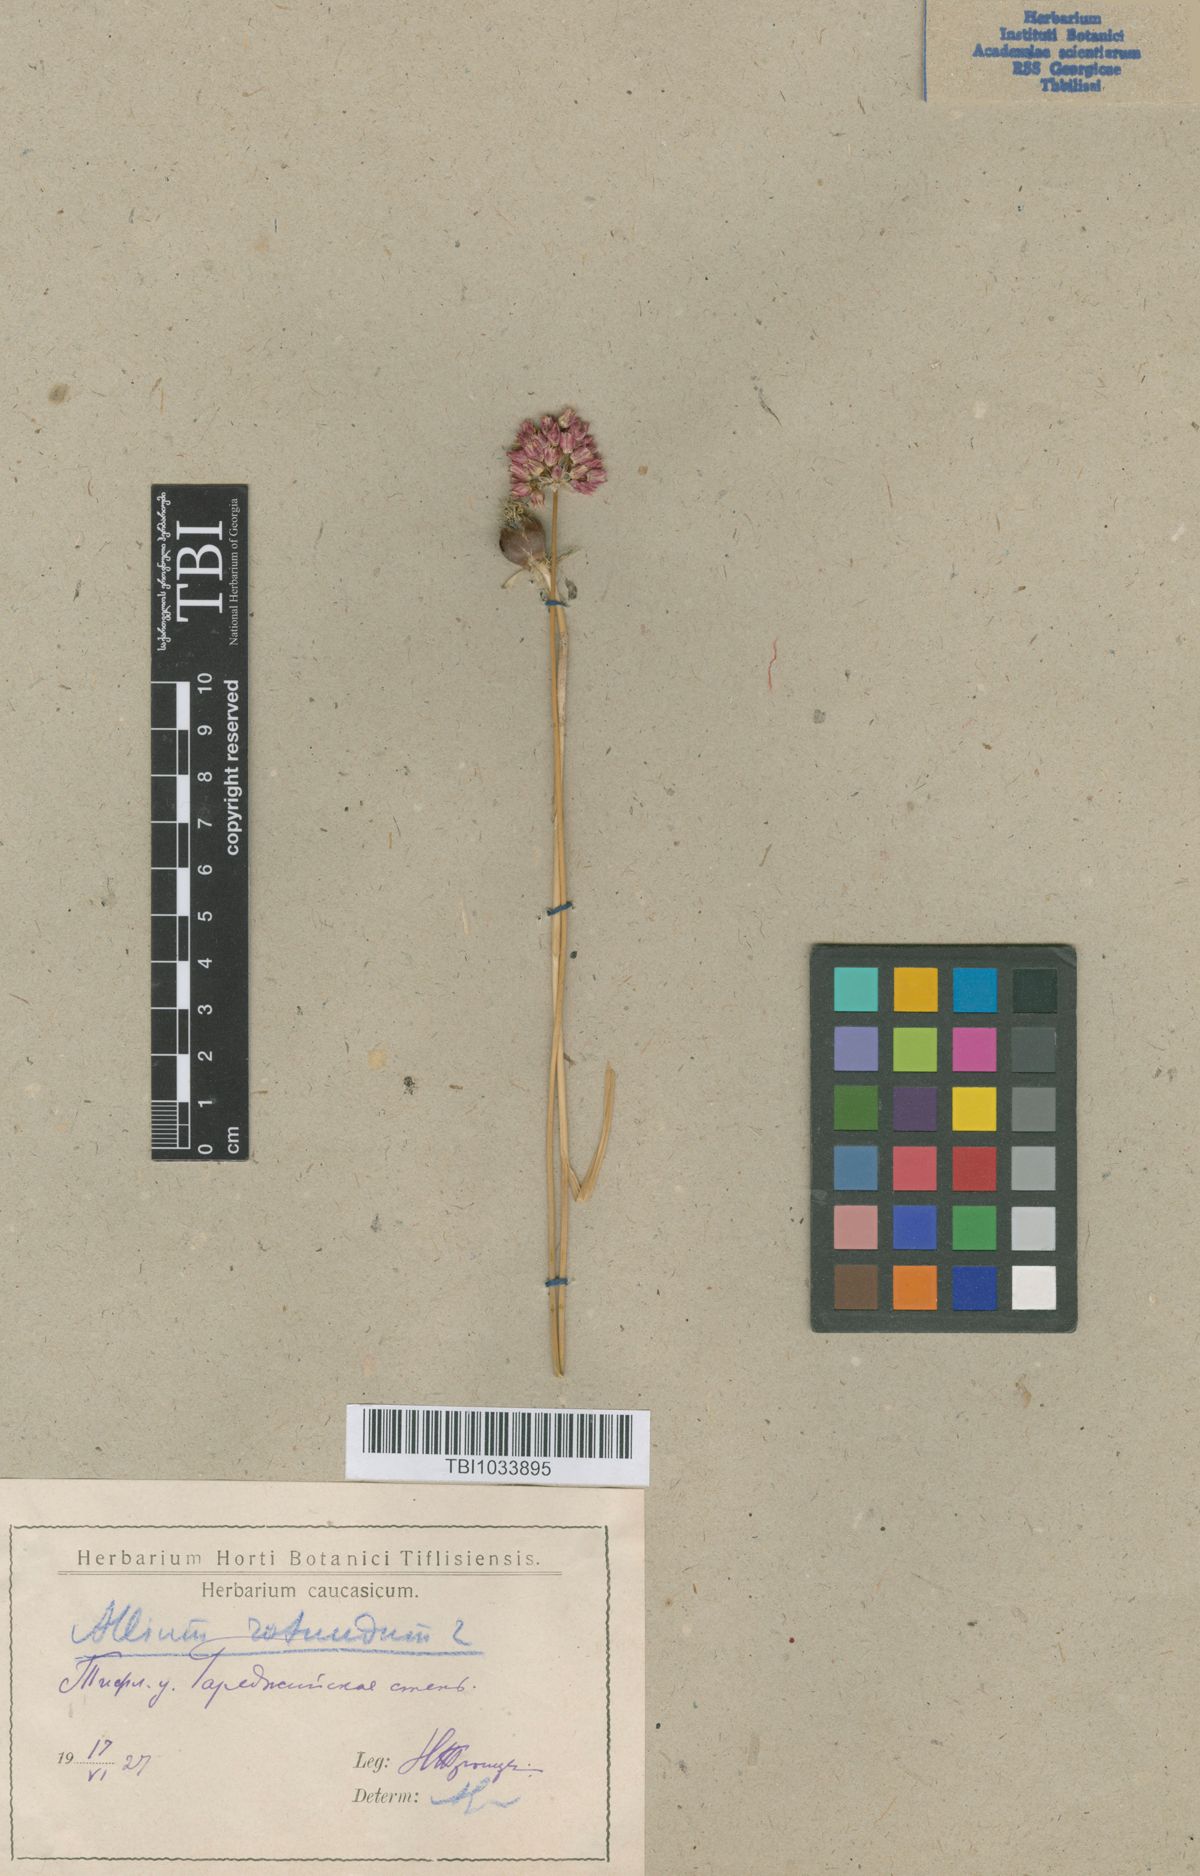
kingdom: Plantae
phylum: Tracheophyta
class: Liliopsida
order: Asparagales
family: Amaryllidaceae
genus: Allium
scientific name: Allium rotundum
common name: Sand leek
